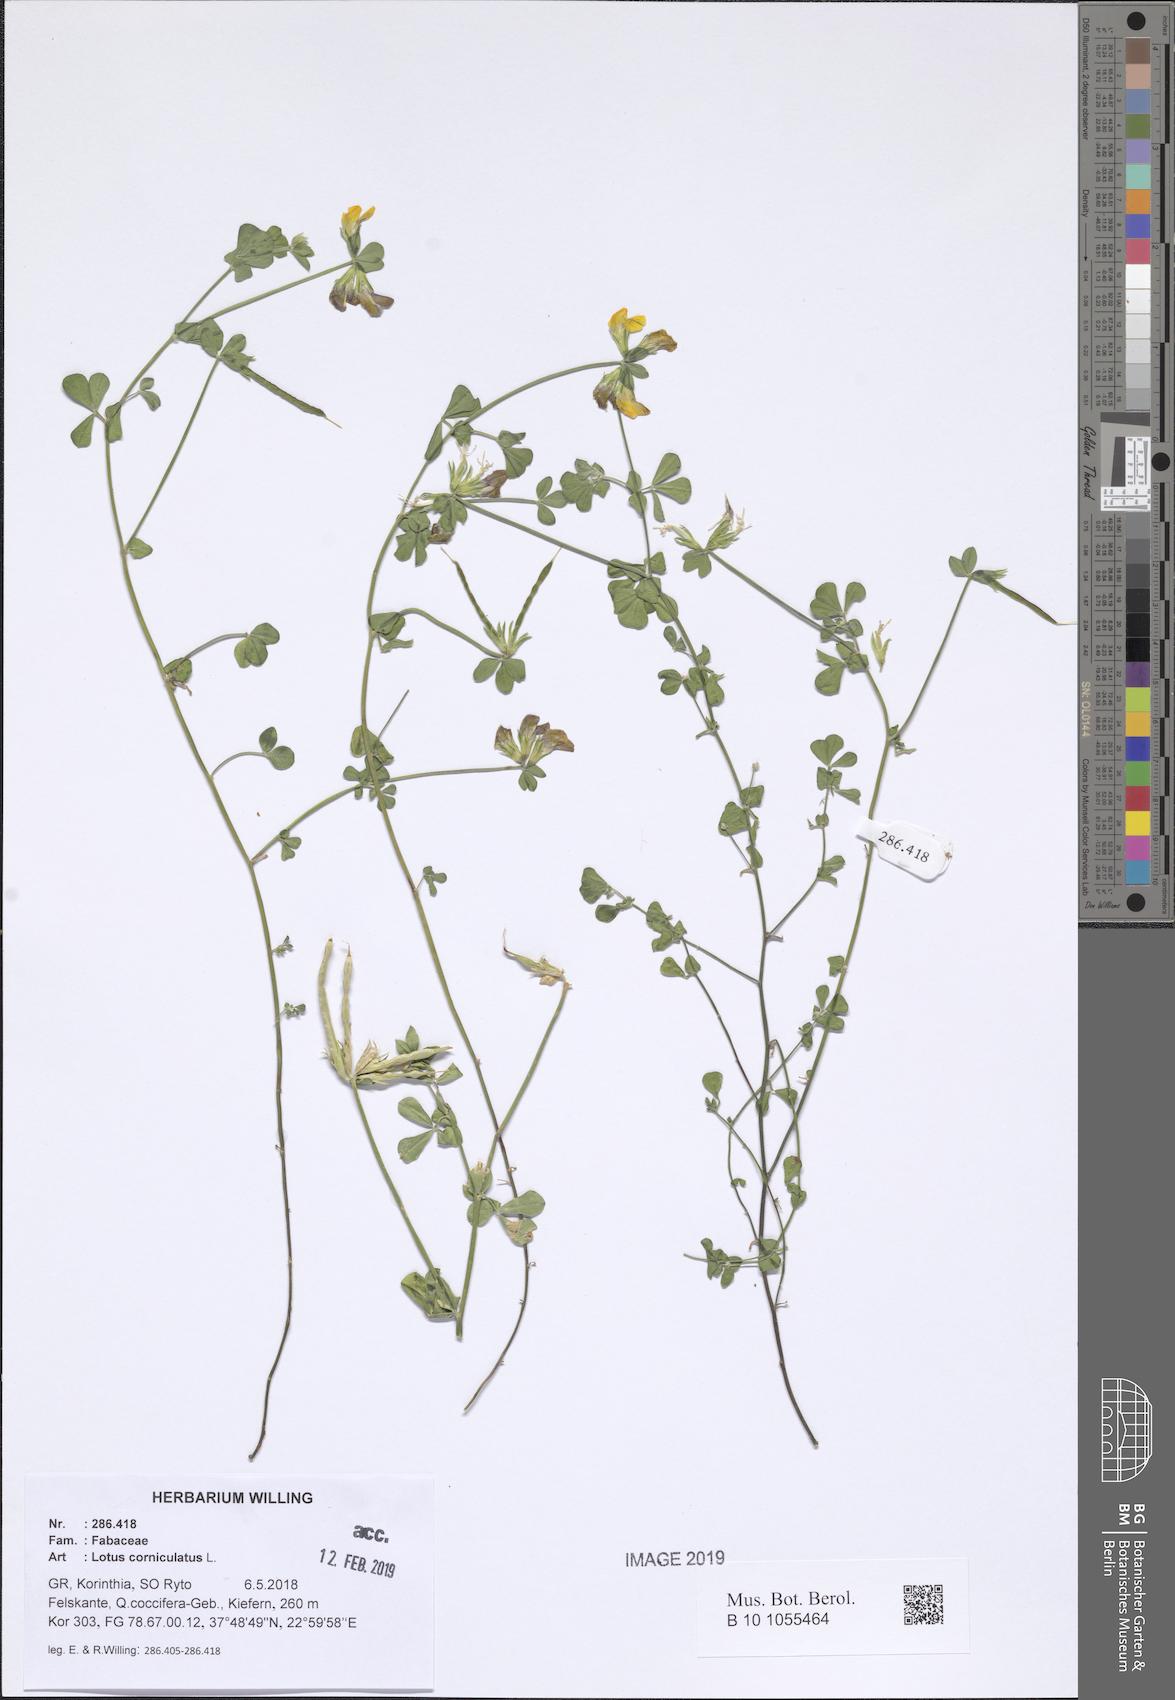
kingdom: Plantae
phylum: Tracheophyta
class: Magnoliopsida
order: Fabales
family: Fabaceae
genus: Lotus
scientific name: Lotus corniculatus
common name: Common bird's-foot-trefoil
